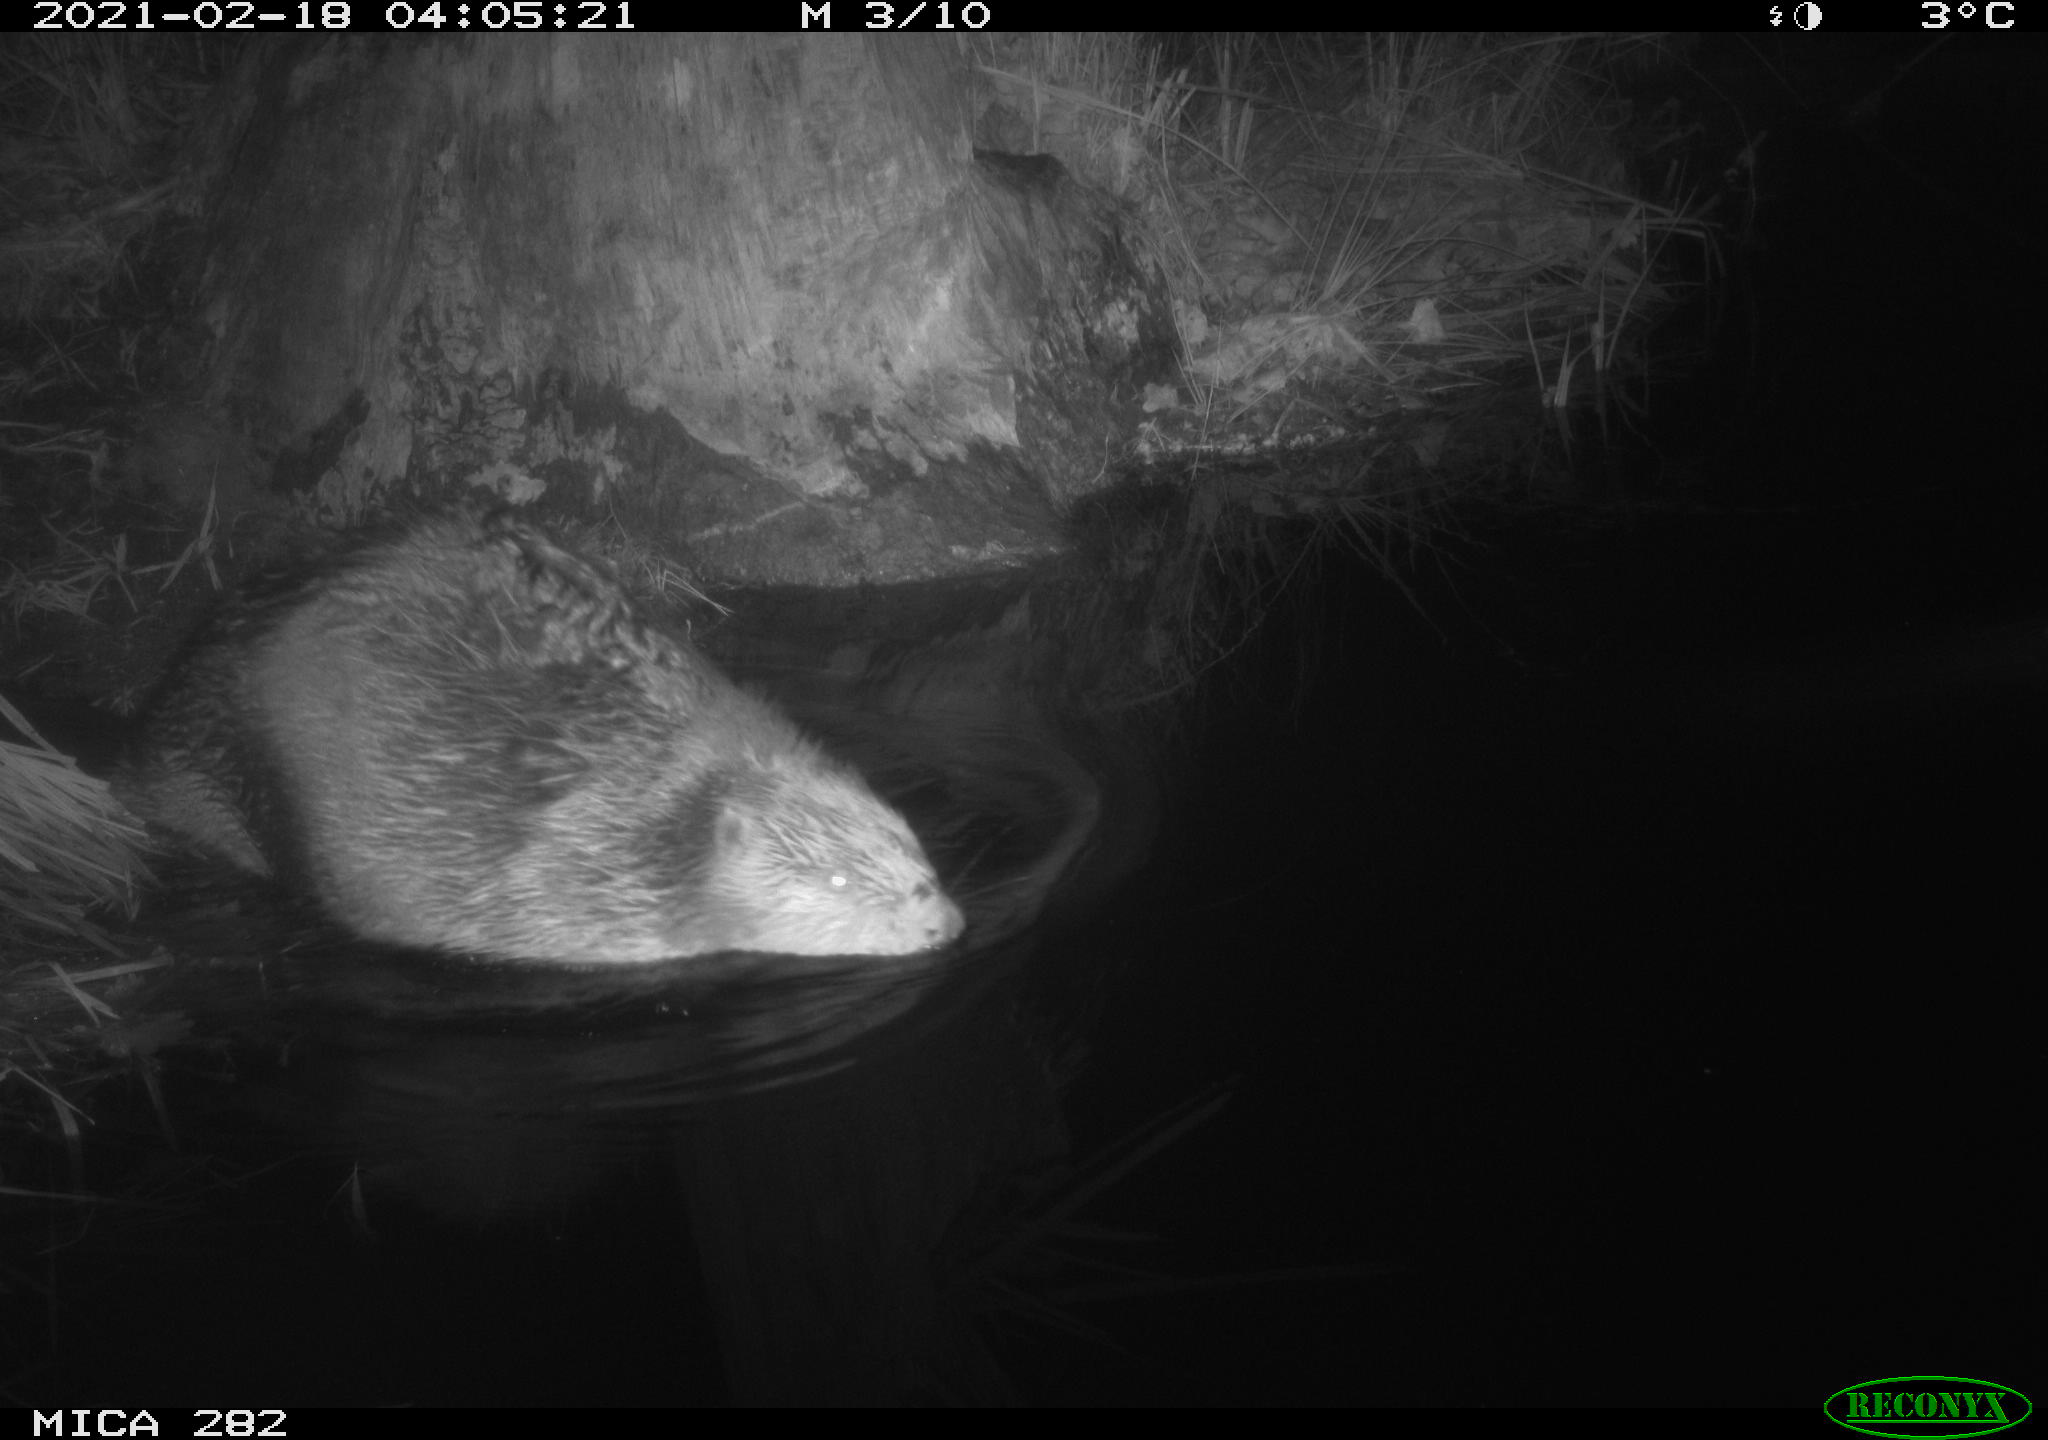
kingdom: Animalia
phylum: Chordata
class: Mammalia
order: Rodentia
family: Castoridae
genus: Castor
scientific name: Castor fiber
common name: Eurasian beaver
